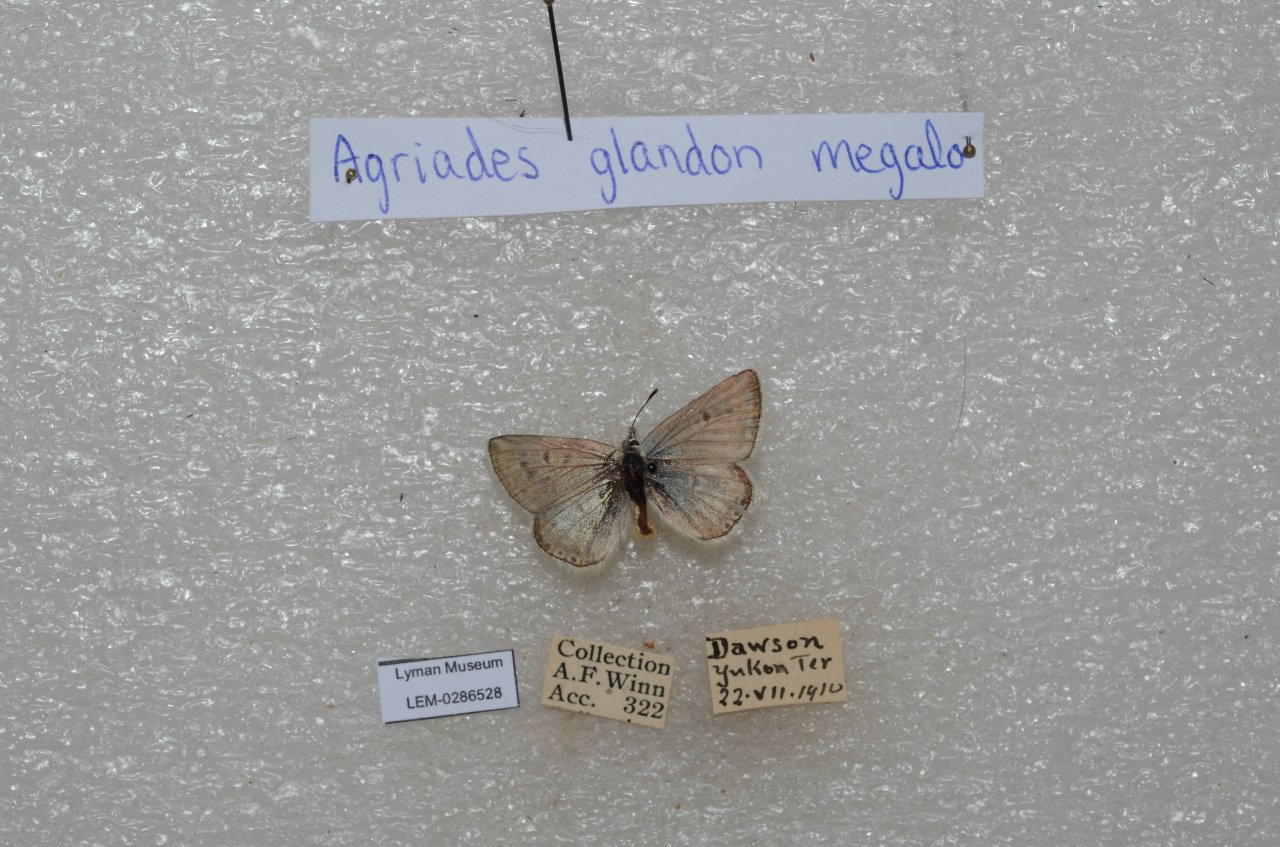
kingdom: Animalia
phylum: Arthropoda
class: Insecta
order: Lepidoptera
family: Lycaenidae
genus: Agriades
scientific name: Agriades glandon
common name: Arctic Blue
